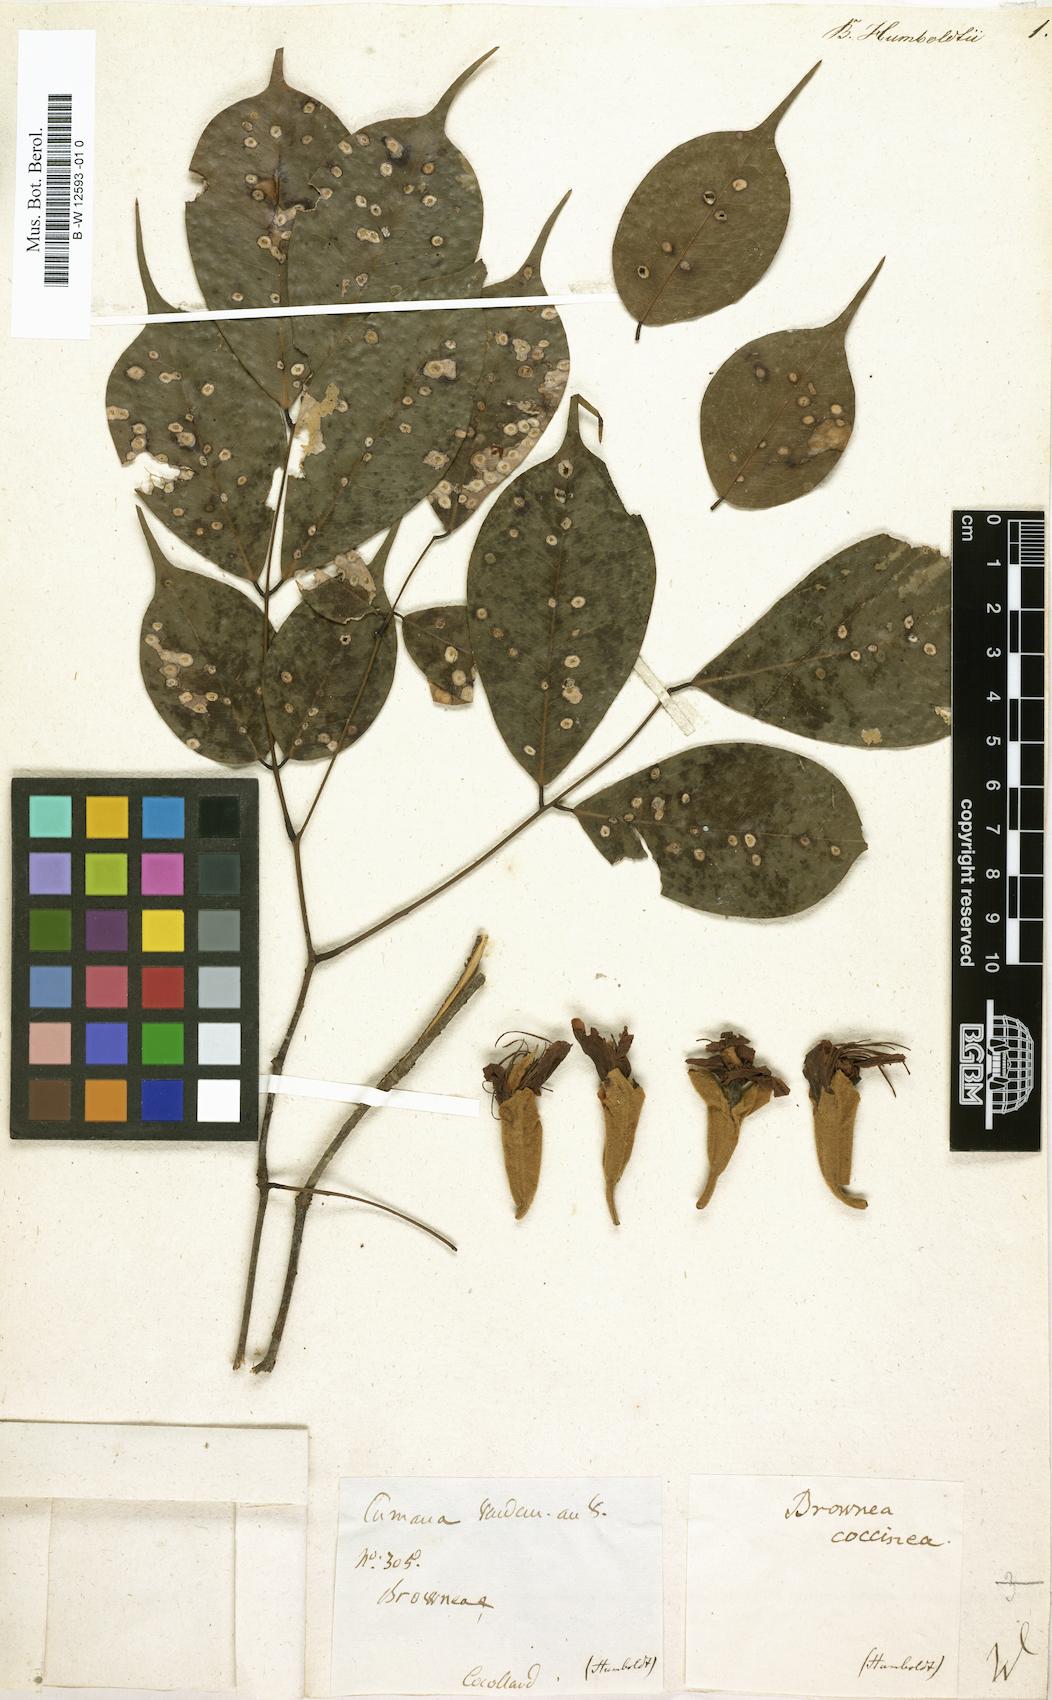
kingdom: Plantae
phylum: Tracheophyta
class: Magnoliopsida
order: Fabales
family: Fabaceae
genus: Brownea
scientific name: Brownea
